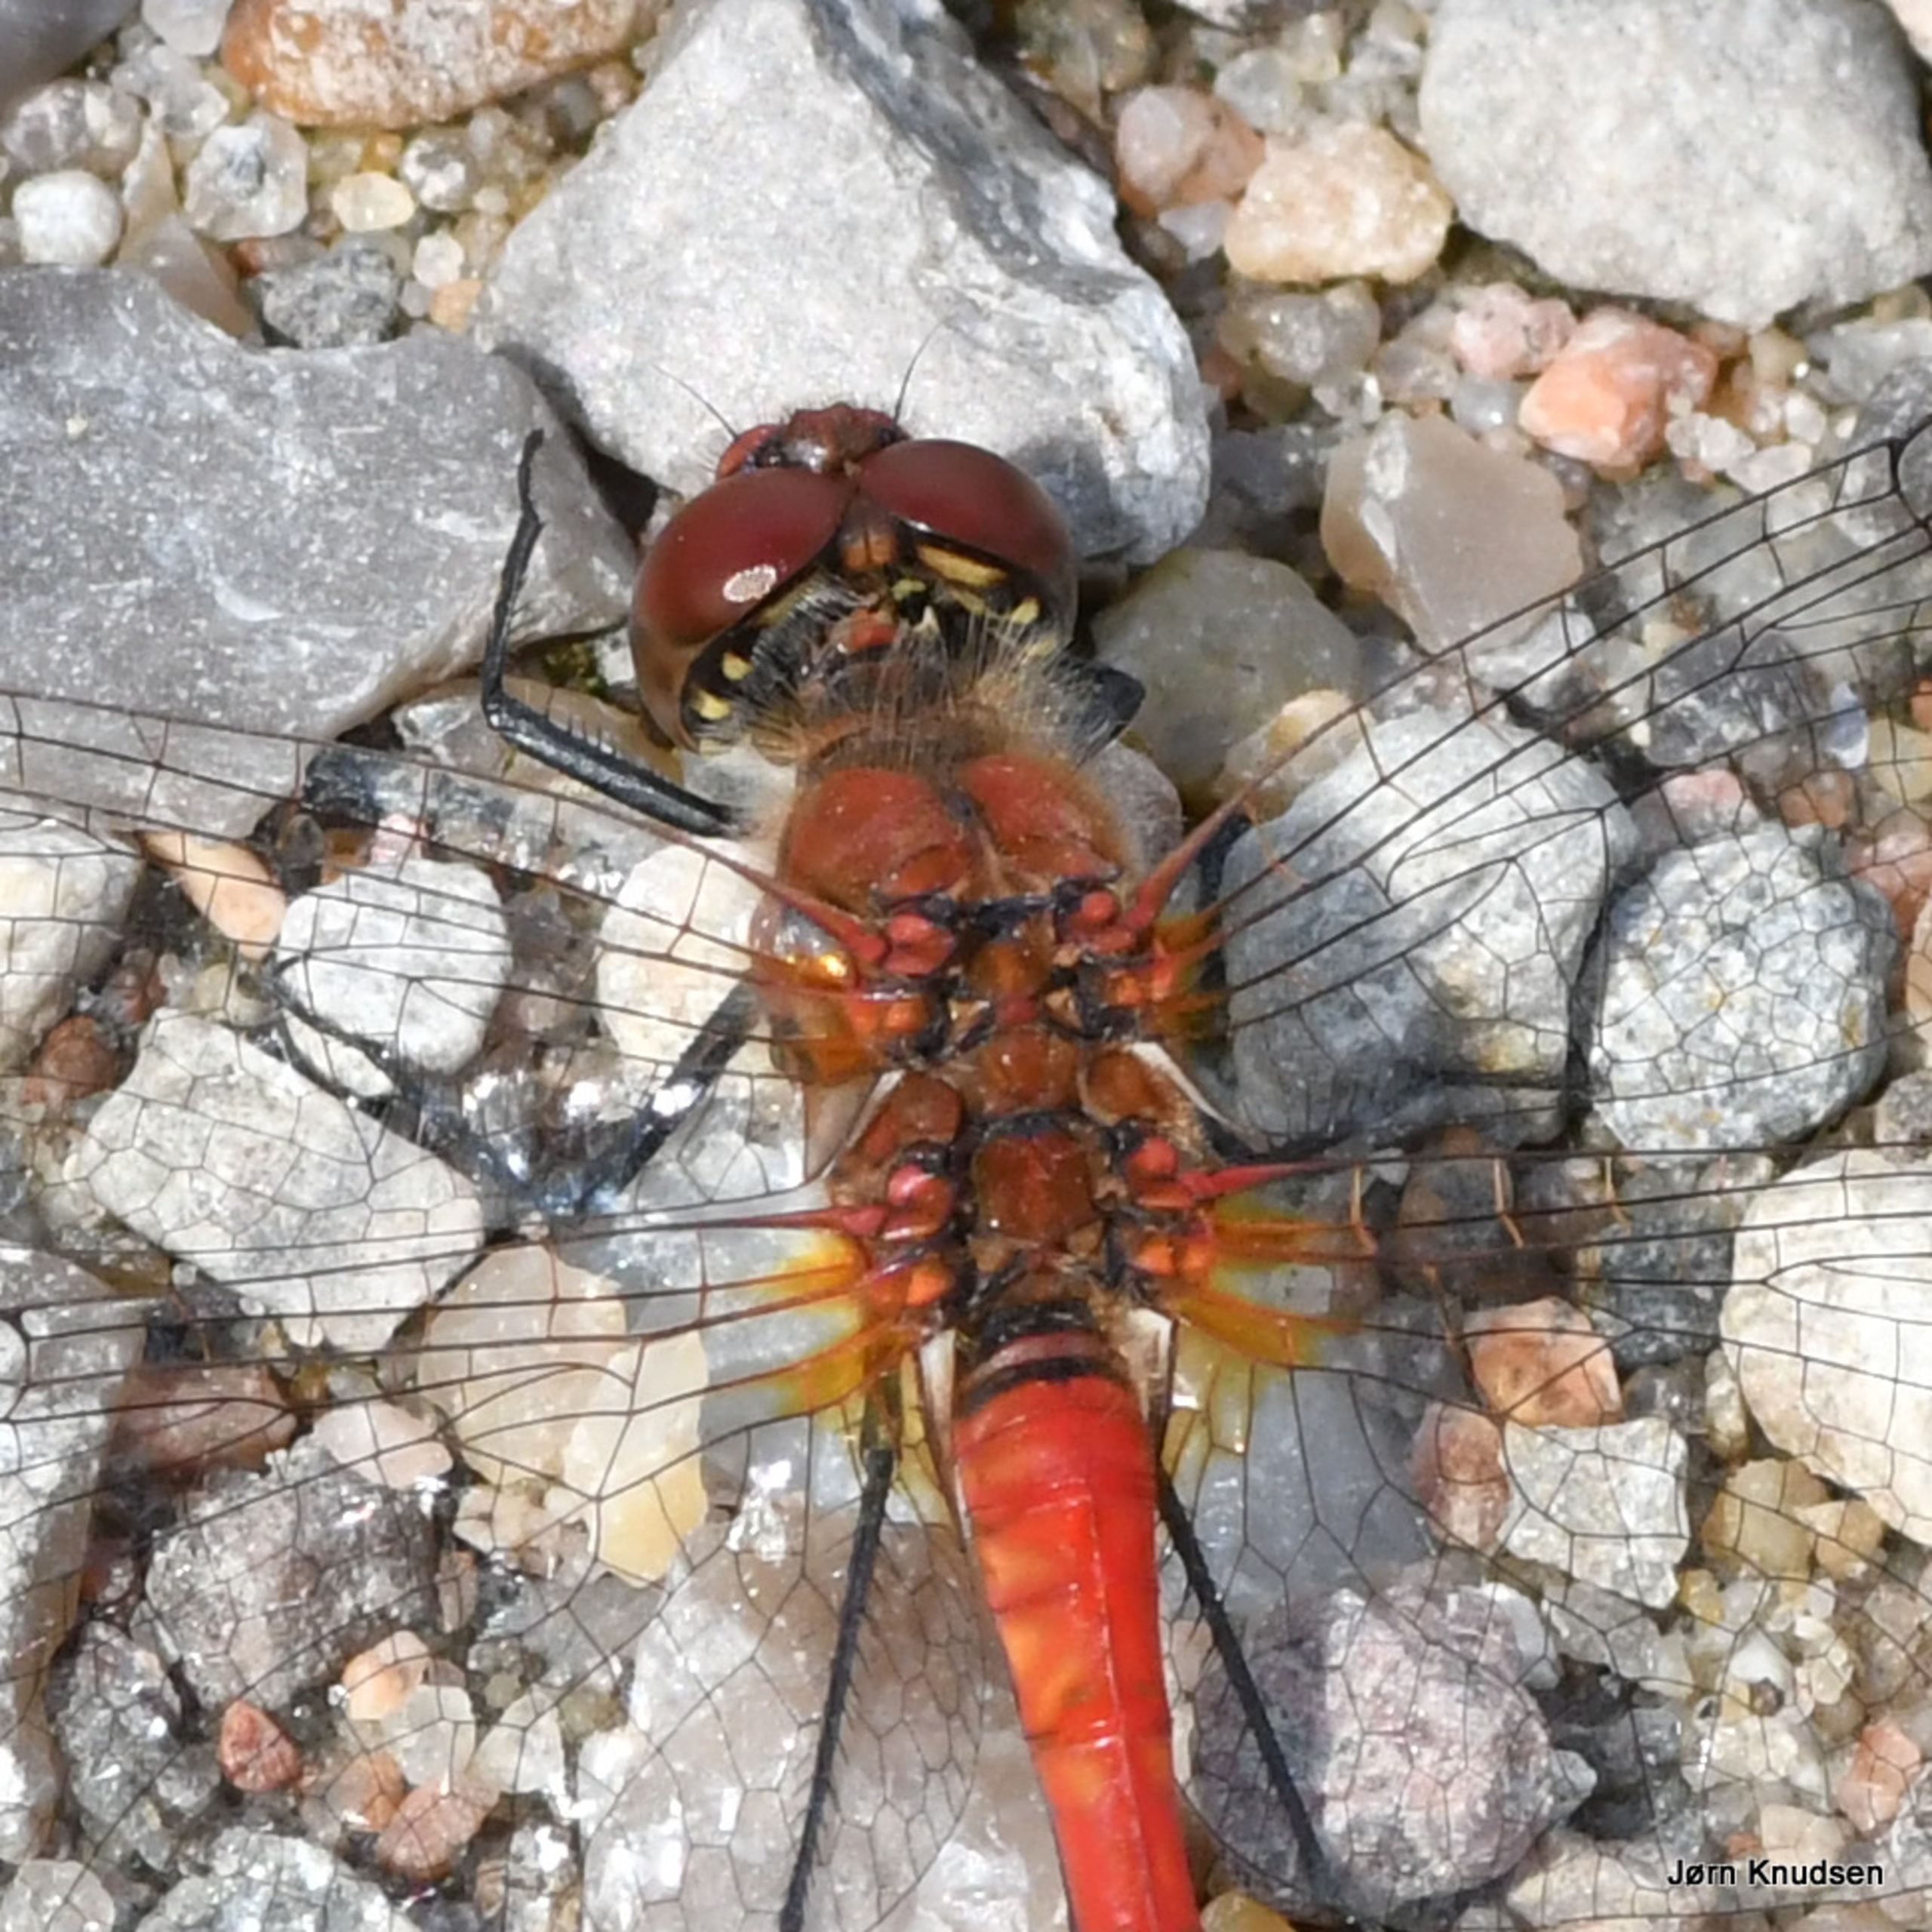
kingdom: Animalia
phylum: Arthropoda
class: Insecta
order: Odonata
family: Libellulidae
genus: Sympetrum
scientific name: Sympetrum sanguineum
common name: Blodrød hedelibel
